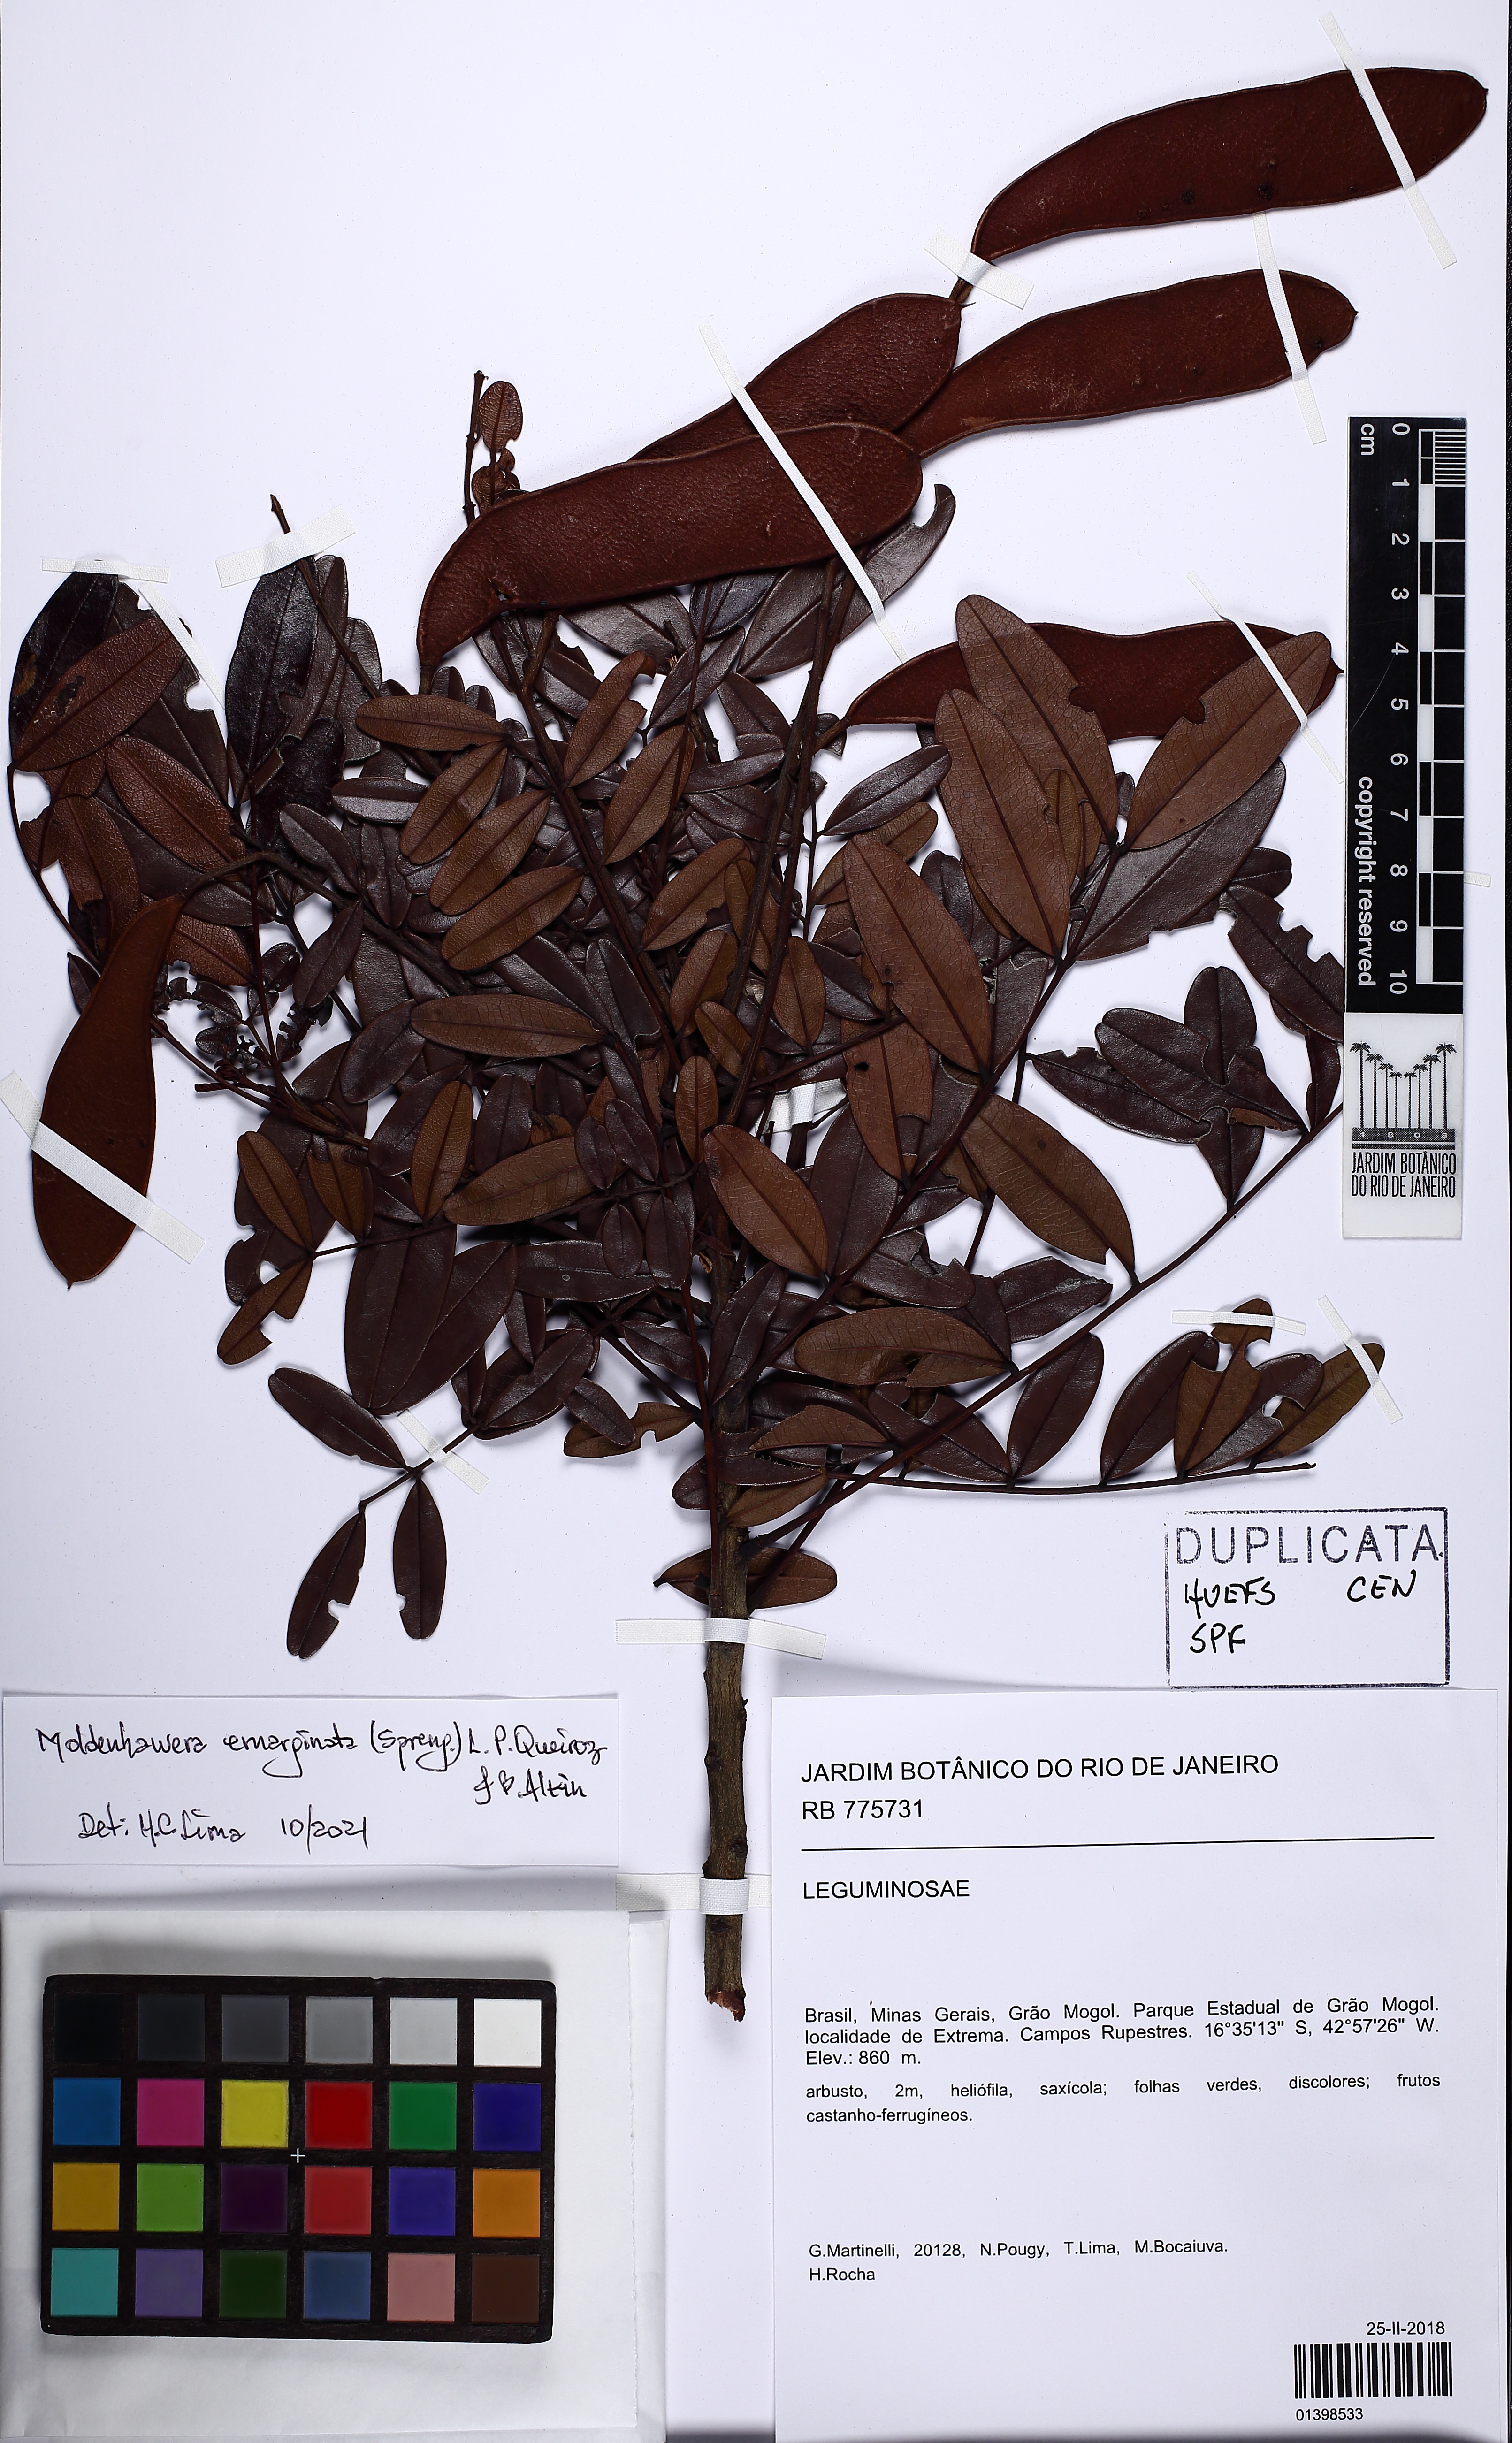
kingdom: Plantae
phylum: Tracheophyta
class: Magnoliopsida
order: Fabales
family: Fabaceae
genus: Moldenhawera
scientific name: Moldenhawera emarginata
